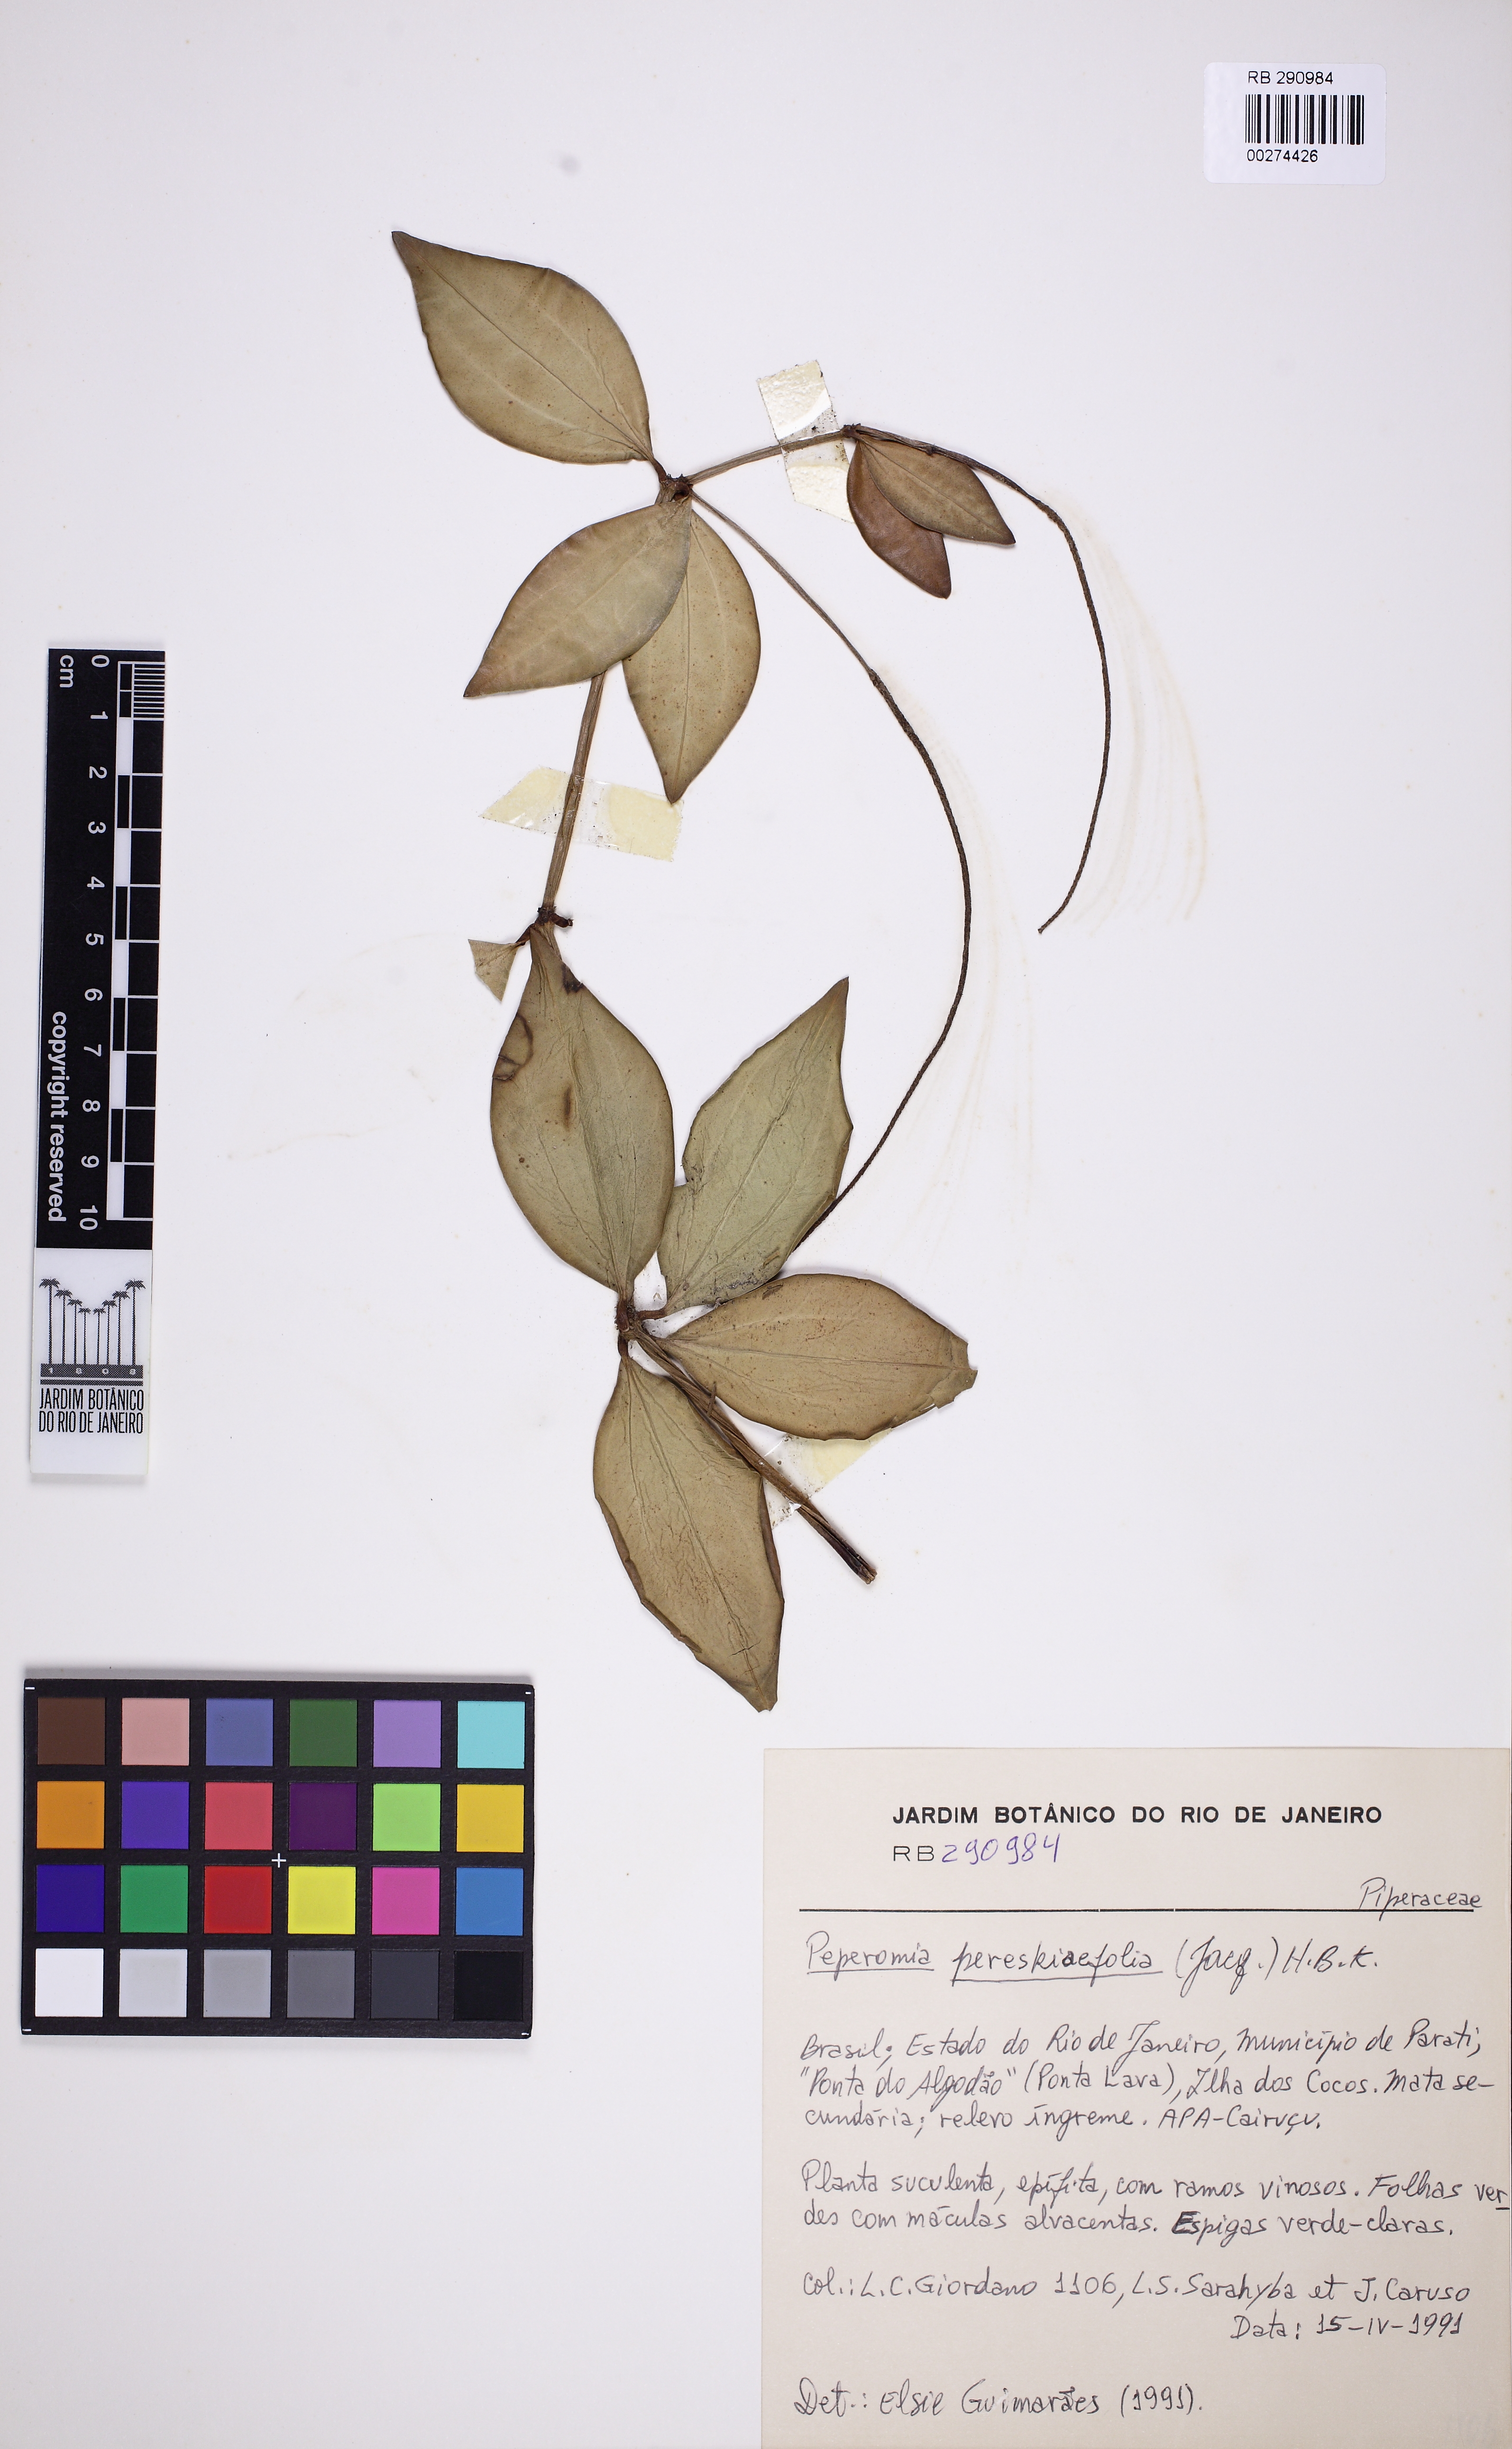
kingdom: Plantae
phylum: Tracheophyta
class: Magnoliopsida
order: Piperales
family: Piperaceae
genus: Peperomia
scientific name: Peperomia rubricaulis
